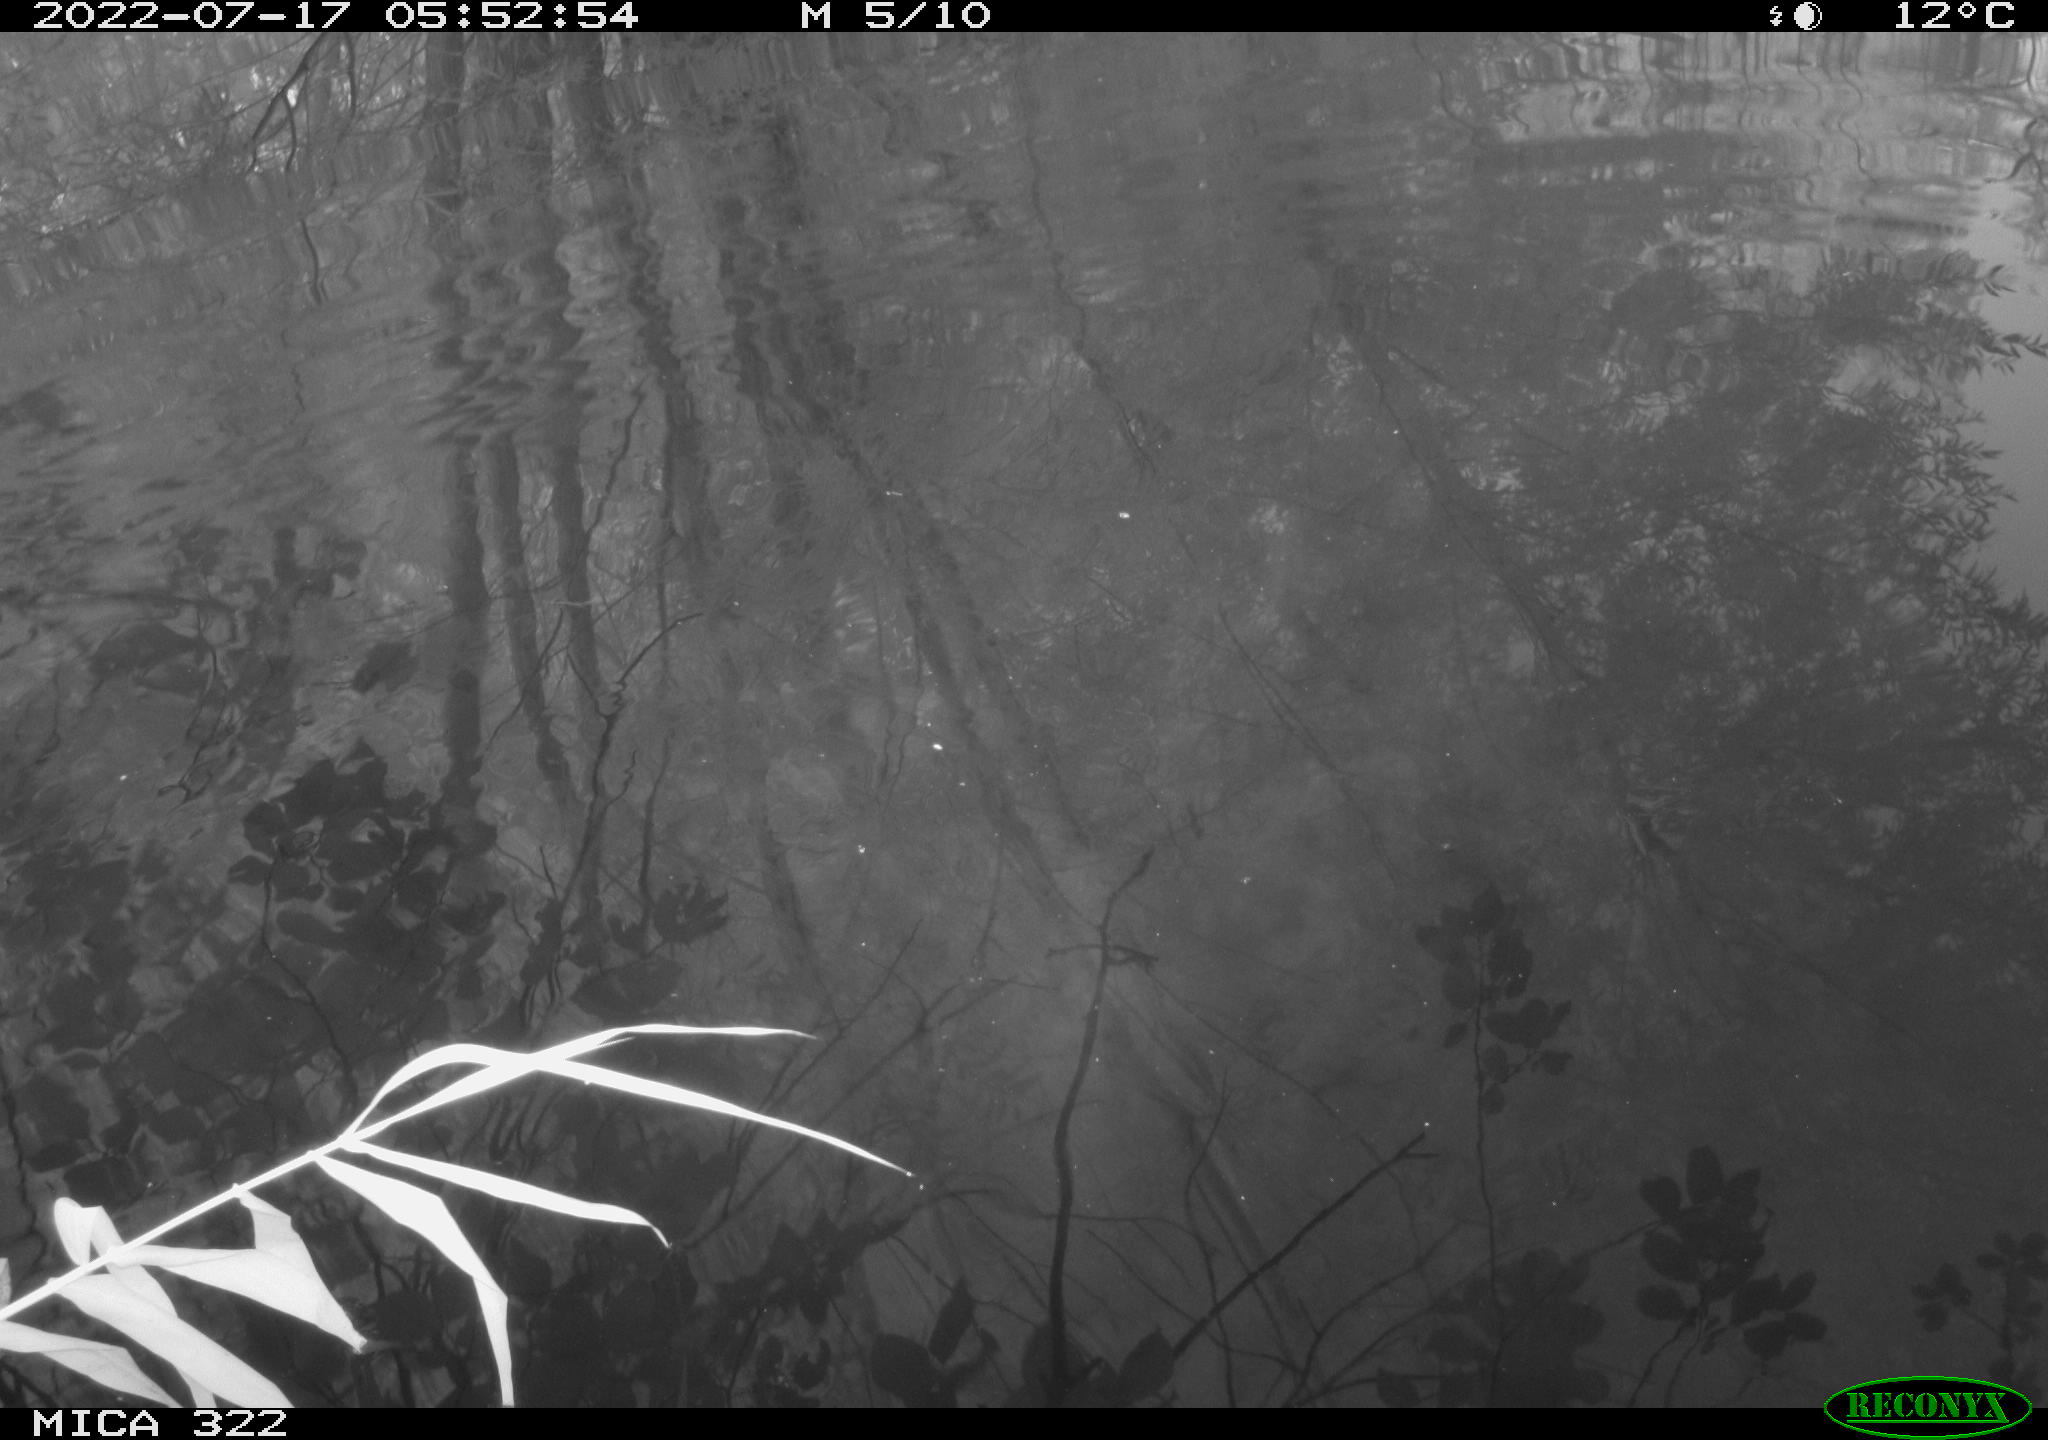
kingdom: Animalia
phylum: Chordata
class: Aves
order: Anseriformes
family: Anatidae
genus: Mareca
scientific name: Mareca strepera
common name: Gadwall
